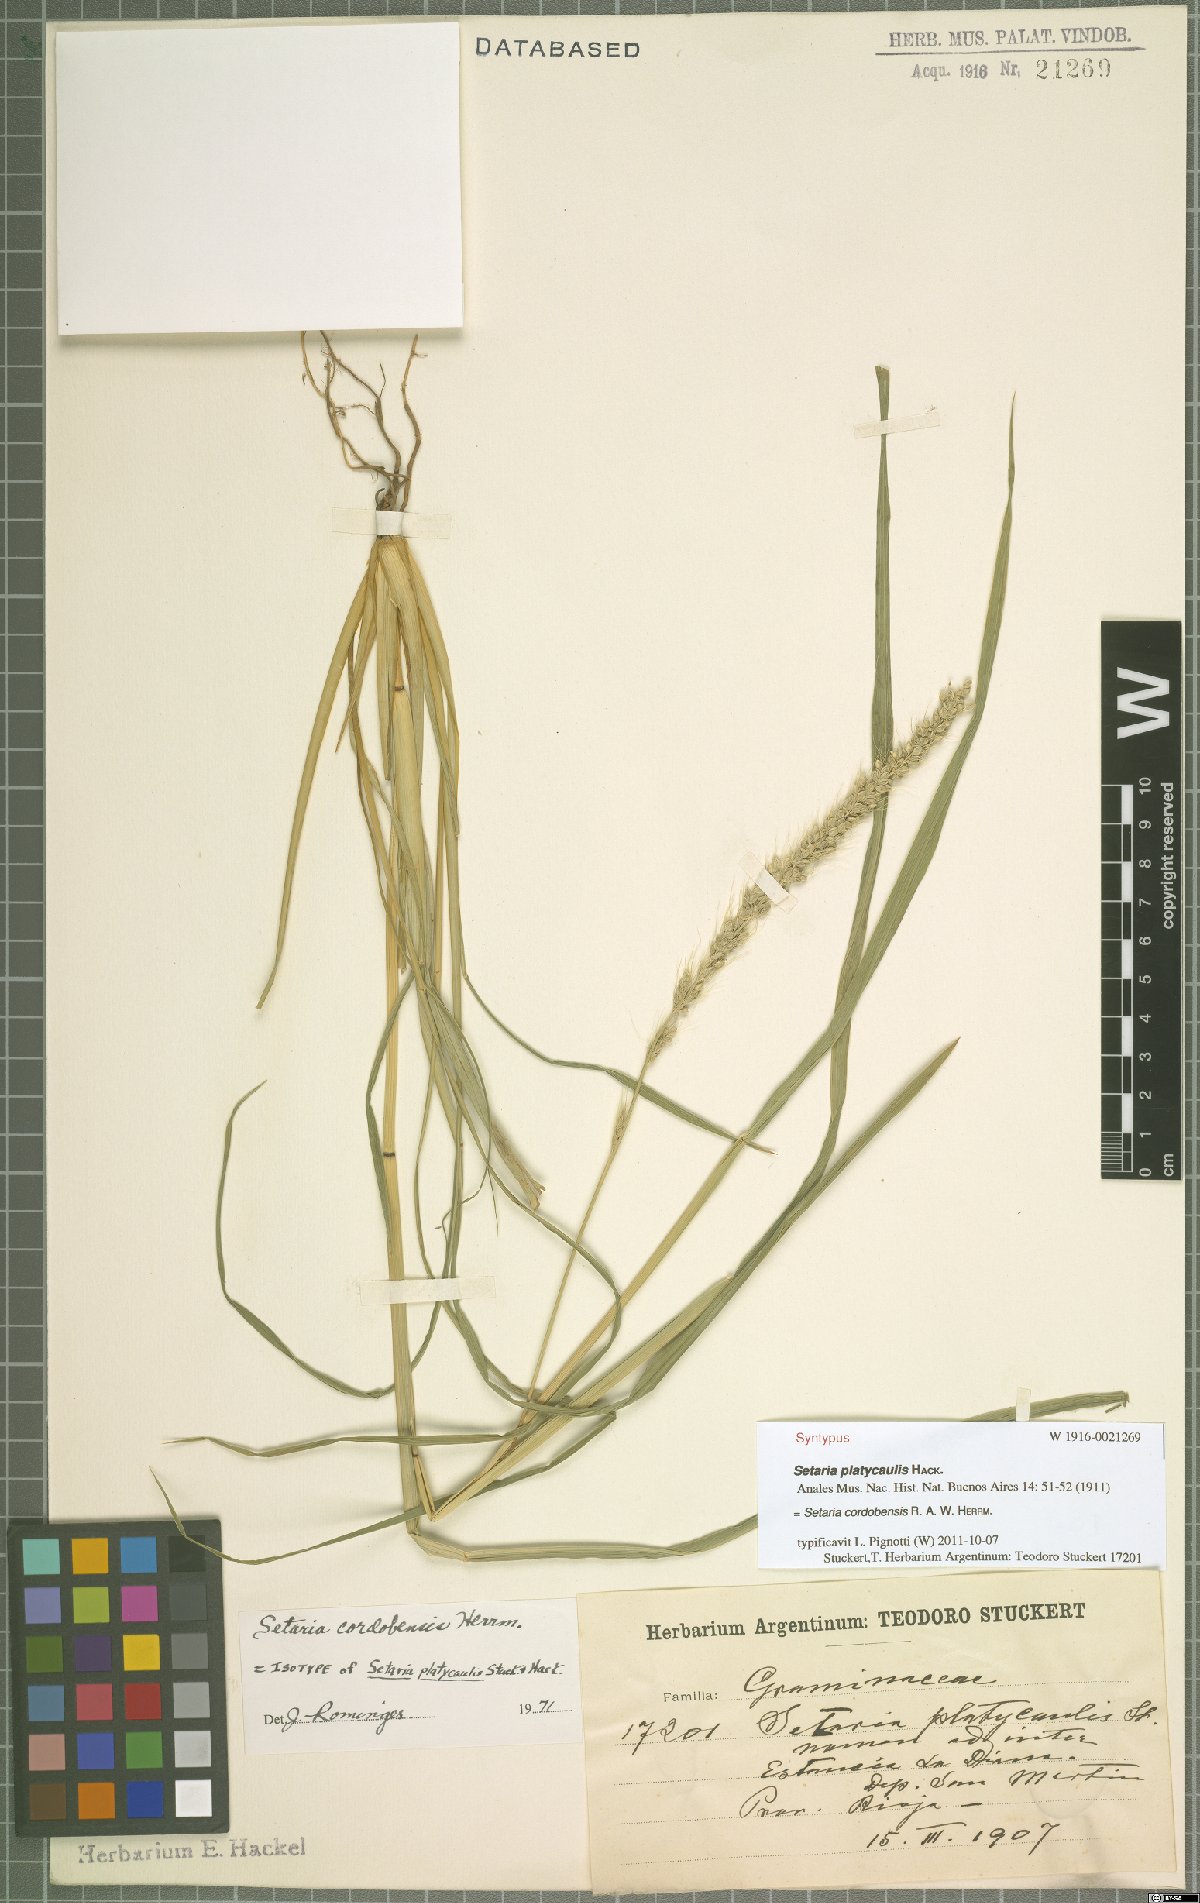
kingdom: Plantae
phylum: Tracheophyta
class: Liliopsida
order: Poales
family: Poaceae
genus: Setaria
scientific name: Setaria cordobensis
